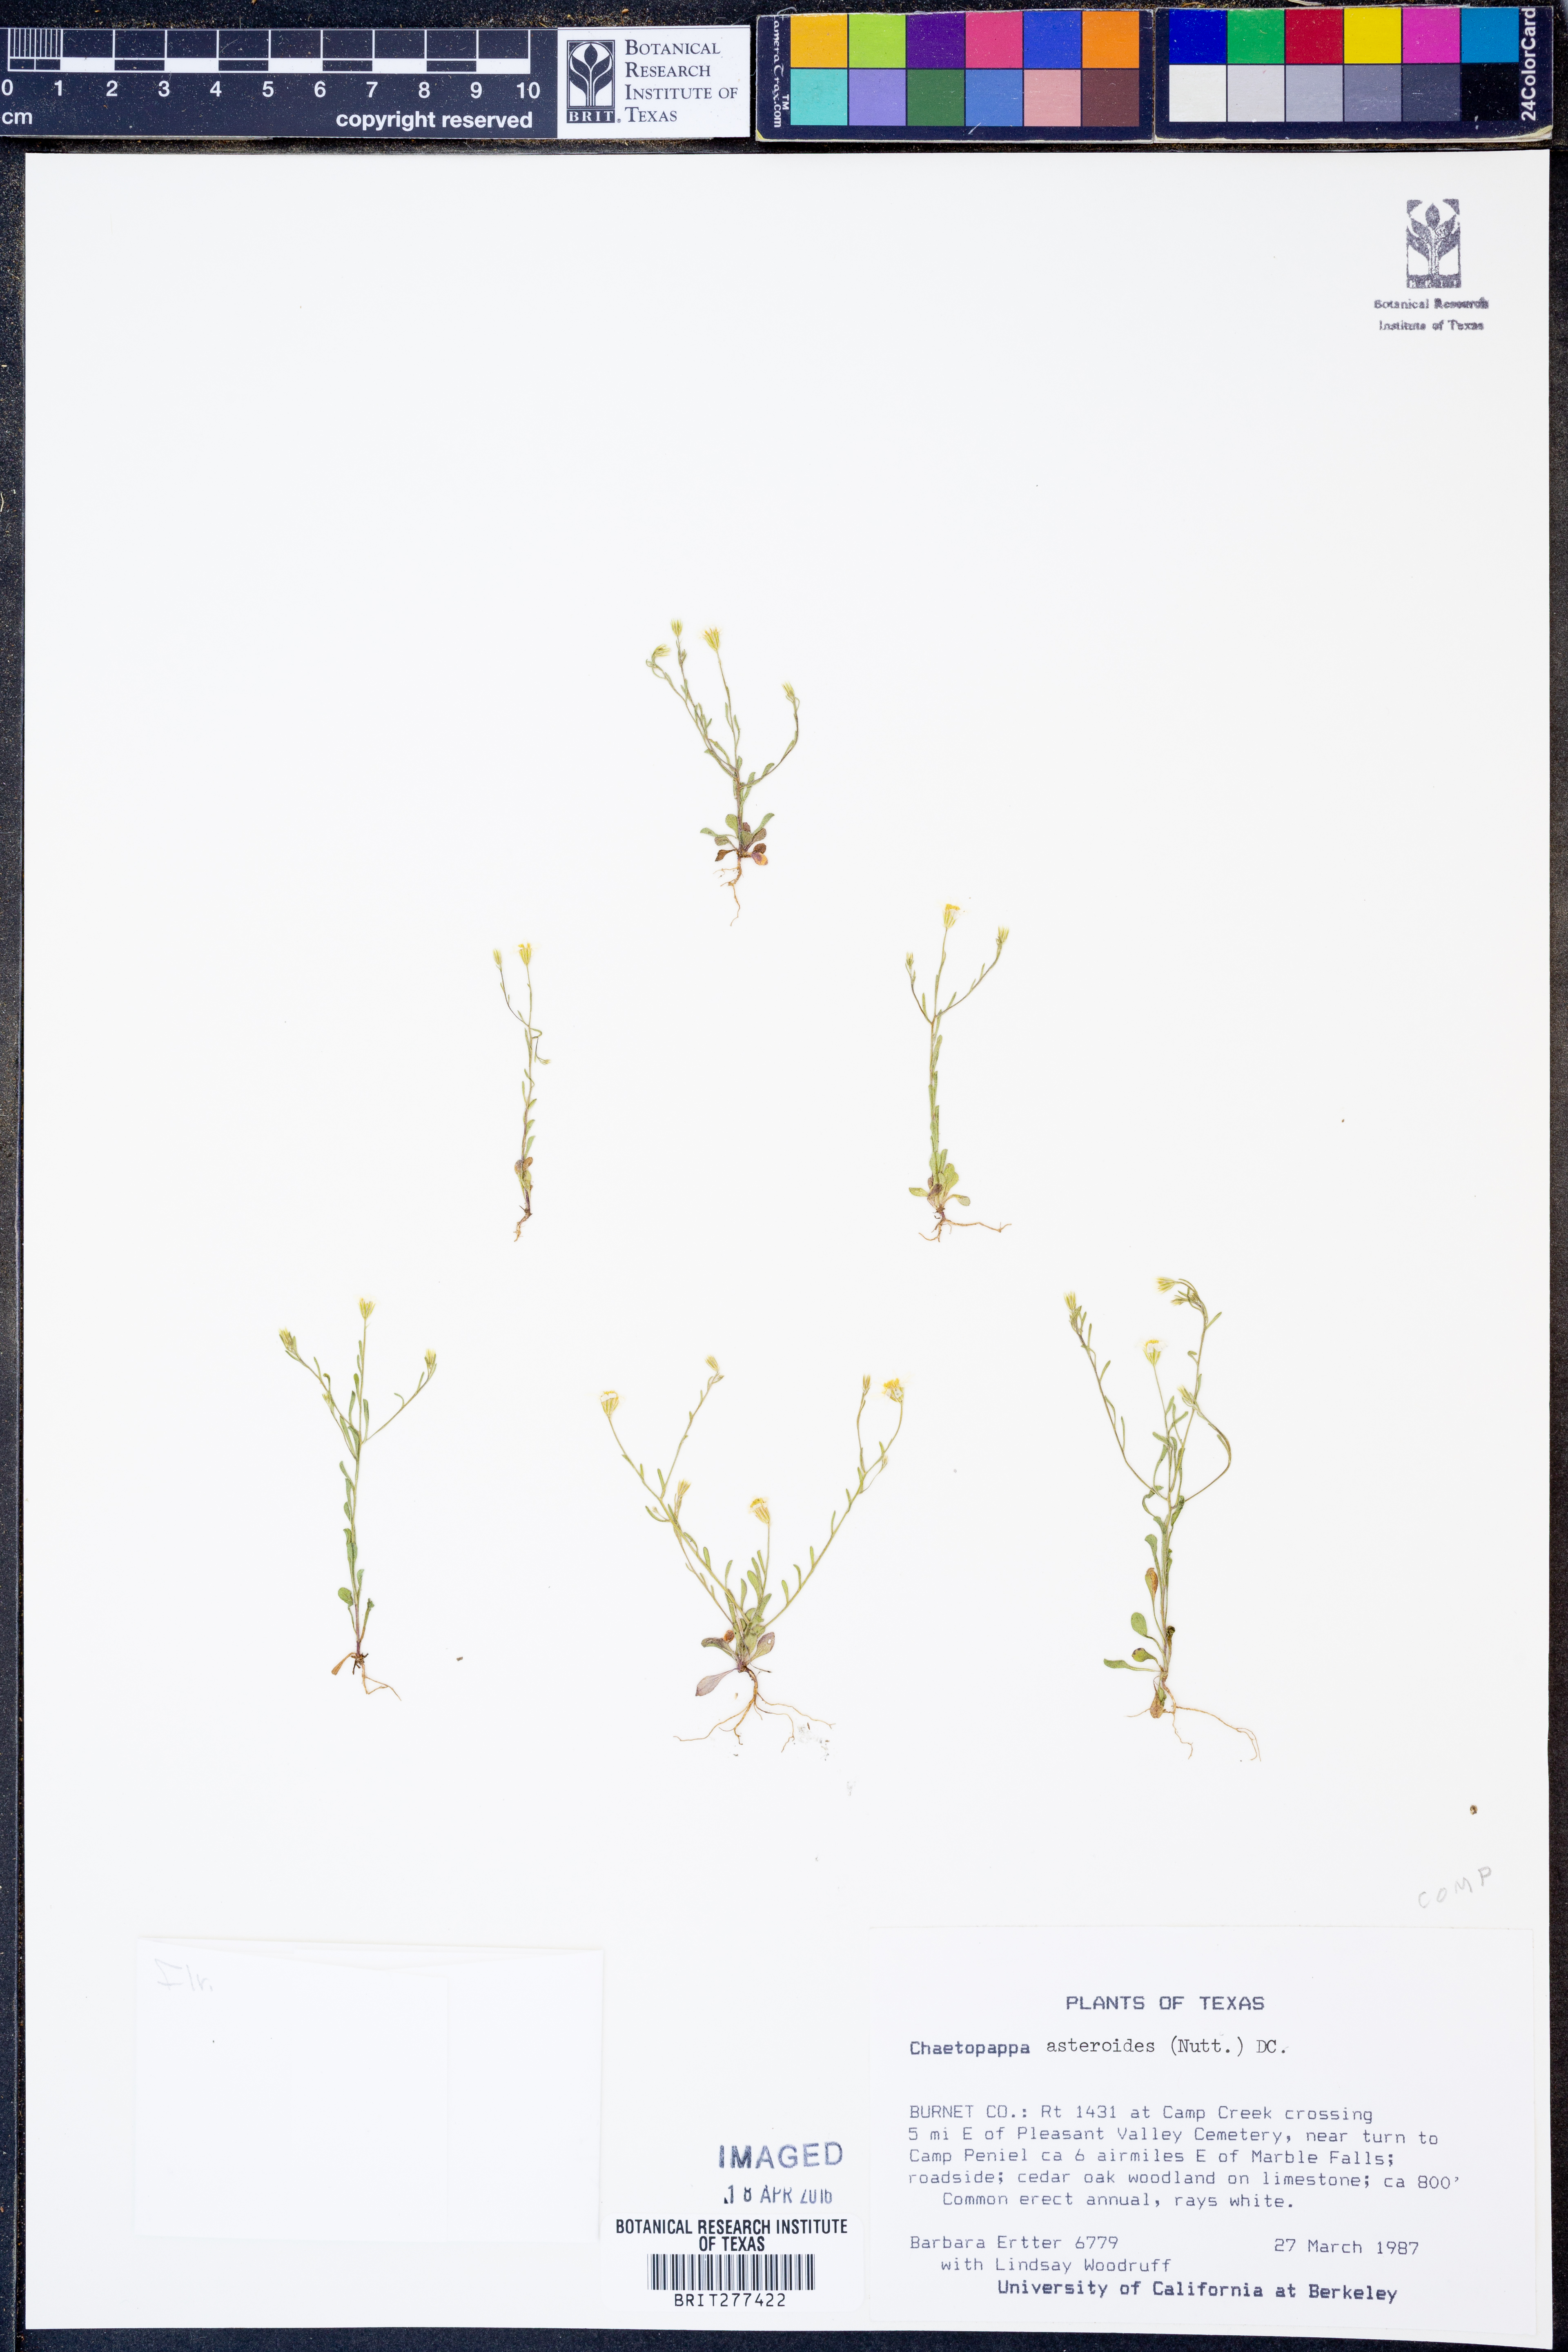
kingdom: Plantae
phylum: Tracheophyta
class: Magnoliopsida
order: Asterales
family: Asteraceae
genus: Chaetopappa
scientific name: Chaetopappa asteroides
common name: Tiny lazy daisy
